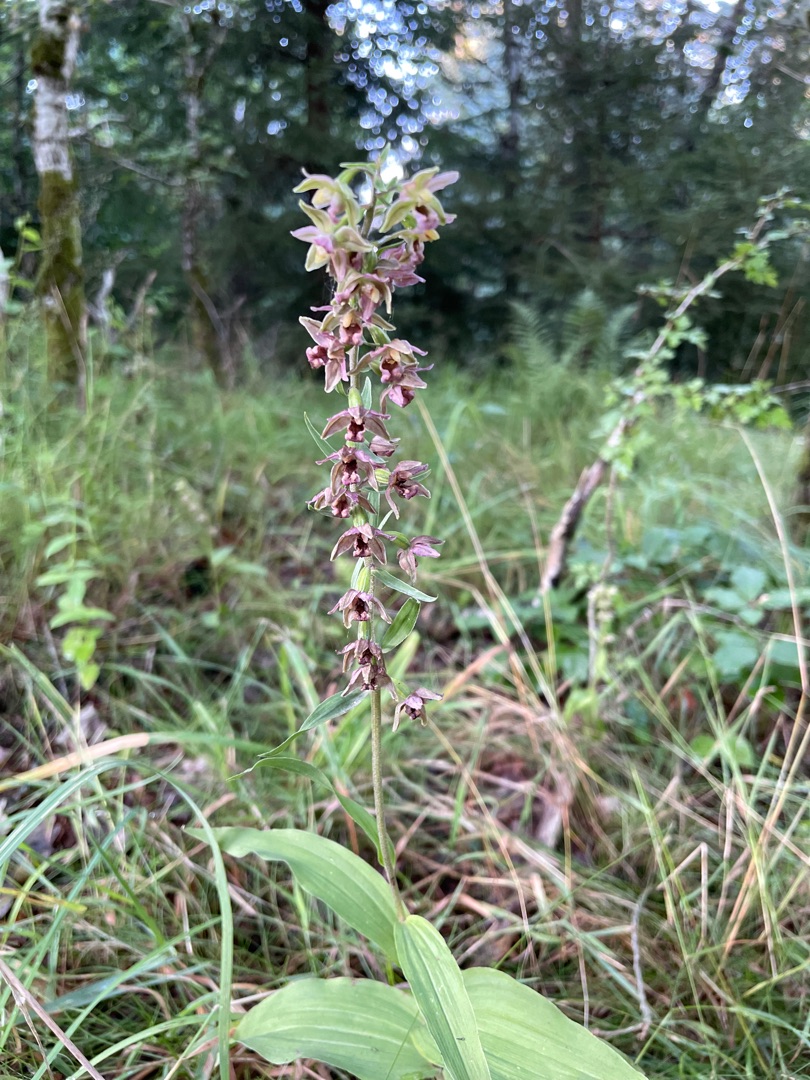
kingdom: Plantae
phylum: Tracheophyta
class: Liliopsida
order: Asparagales
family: Orchidaceae
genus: Epipactis
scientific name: Epipactis helleborine
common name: Skov-hullæbe
